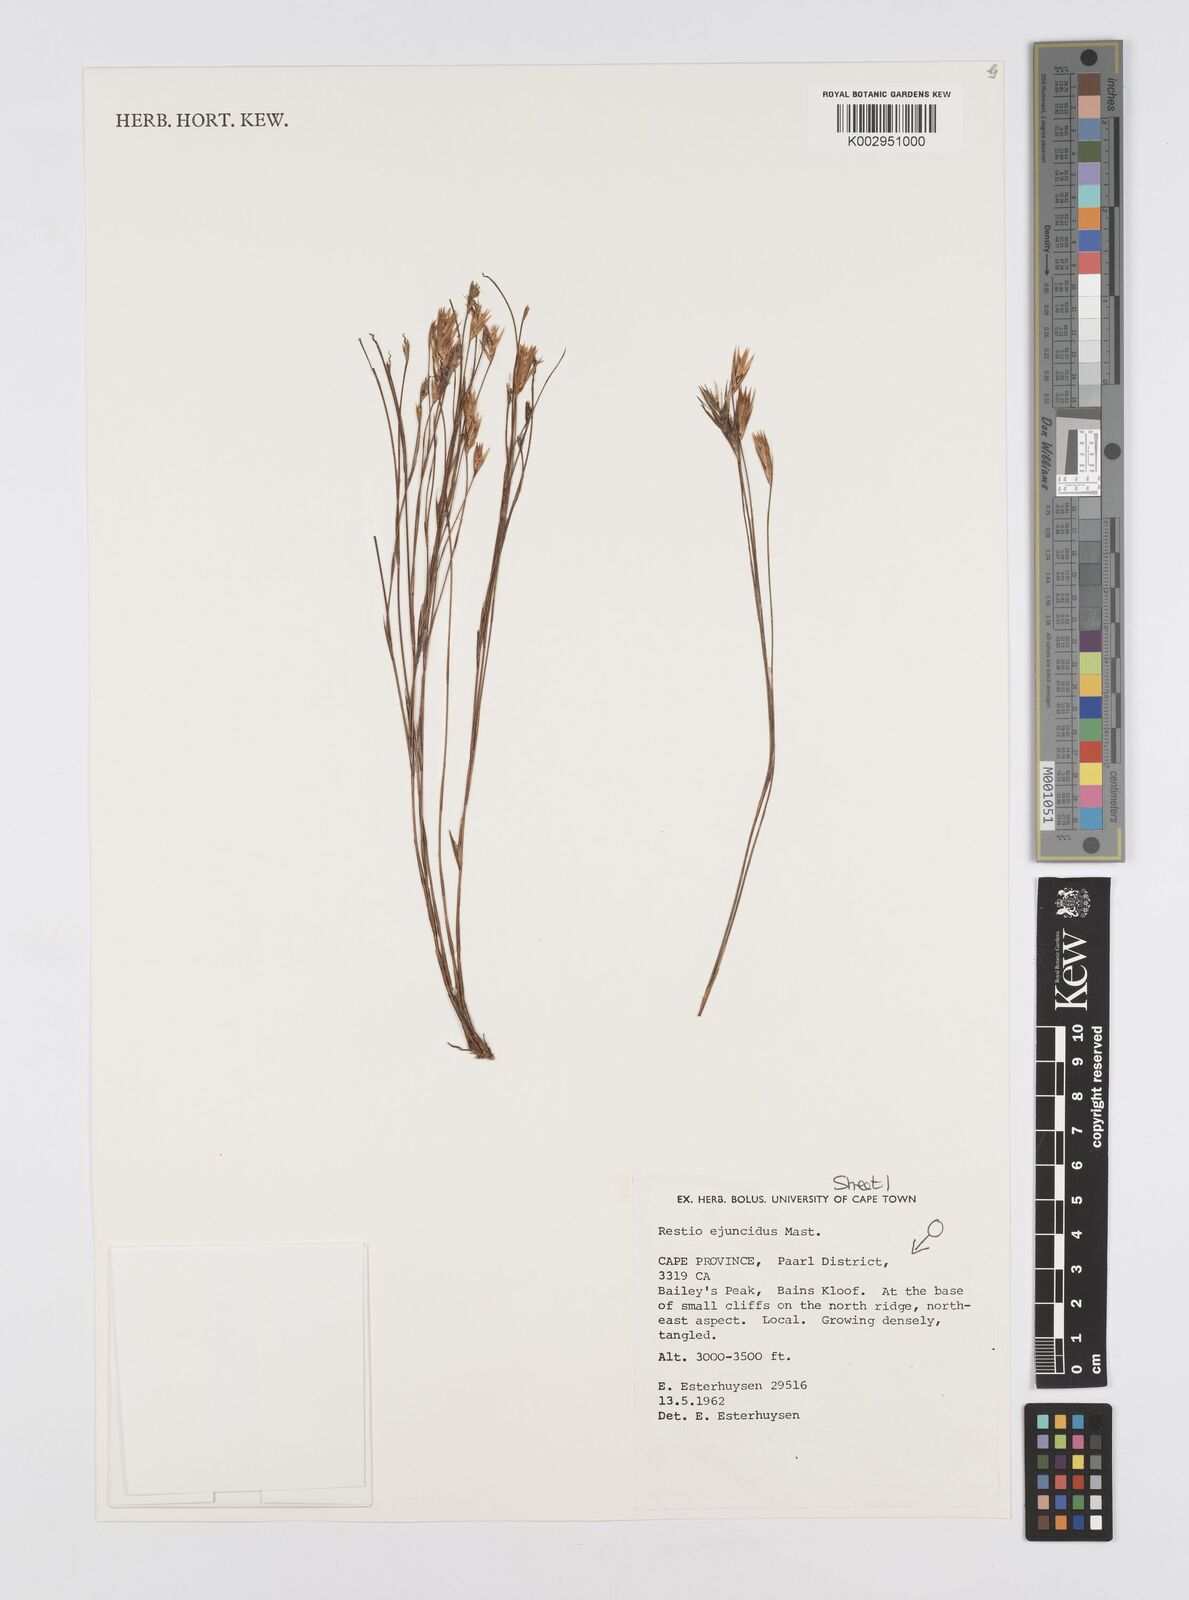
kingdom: Plantae
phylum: Tracheophyta
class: Liliopsida
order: Poales
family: Restionaceae
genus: Restio
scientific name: Restio ejuncidus
